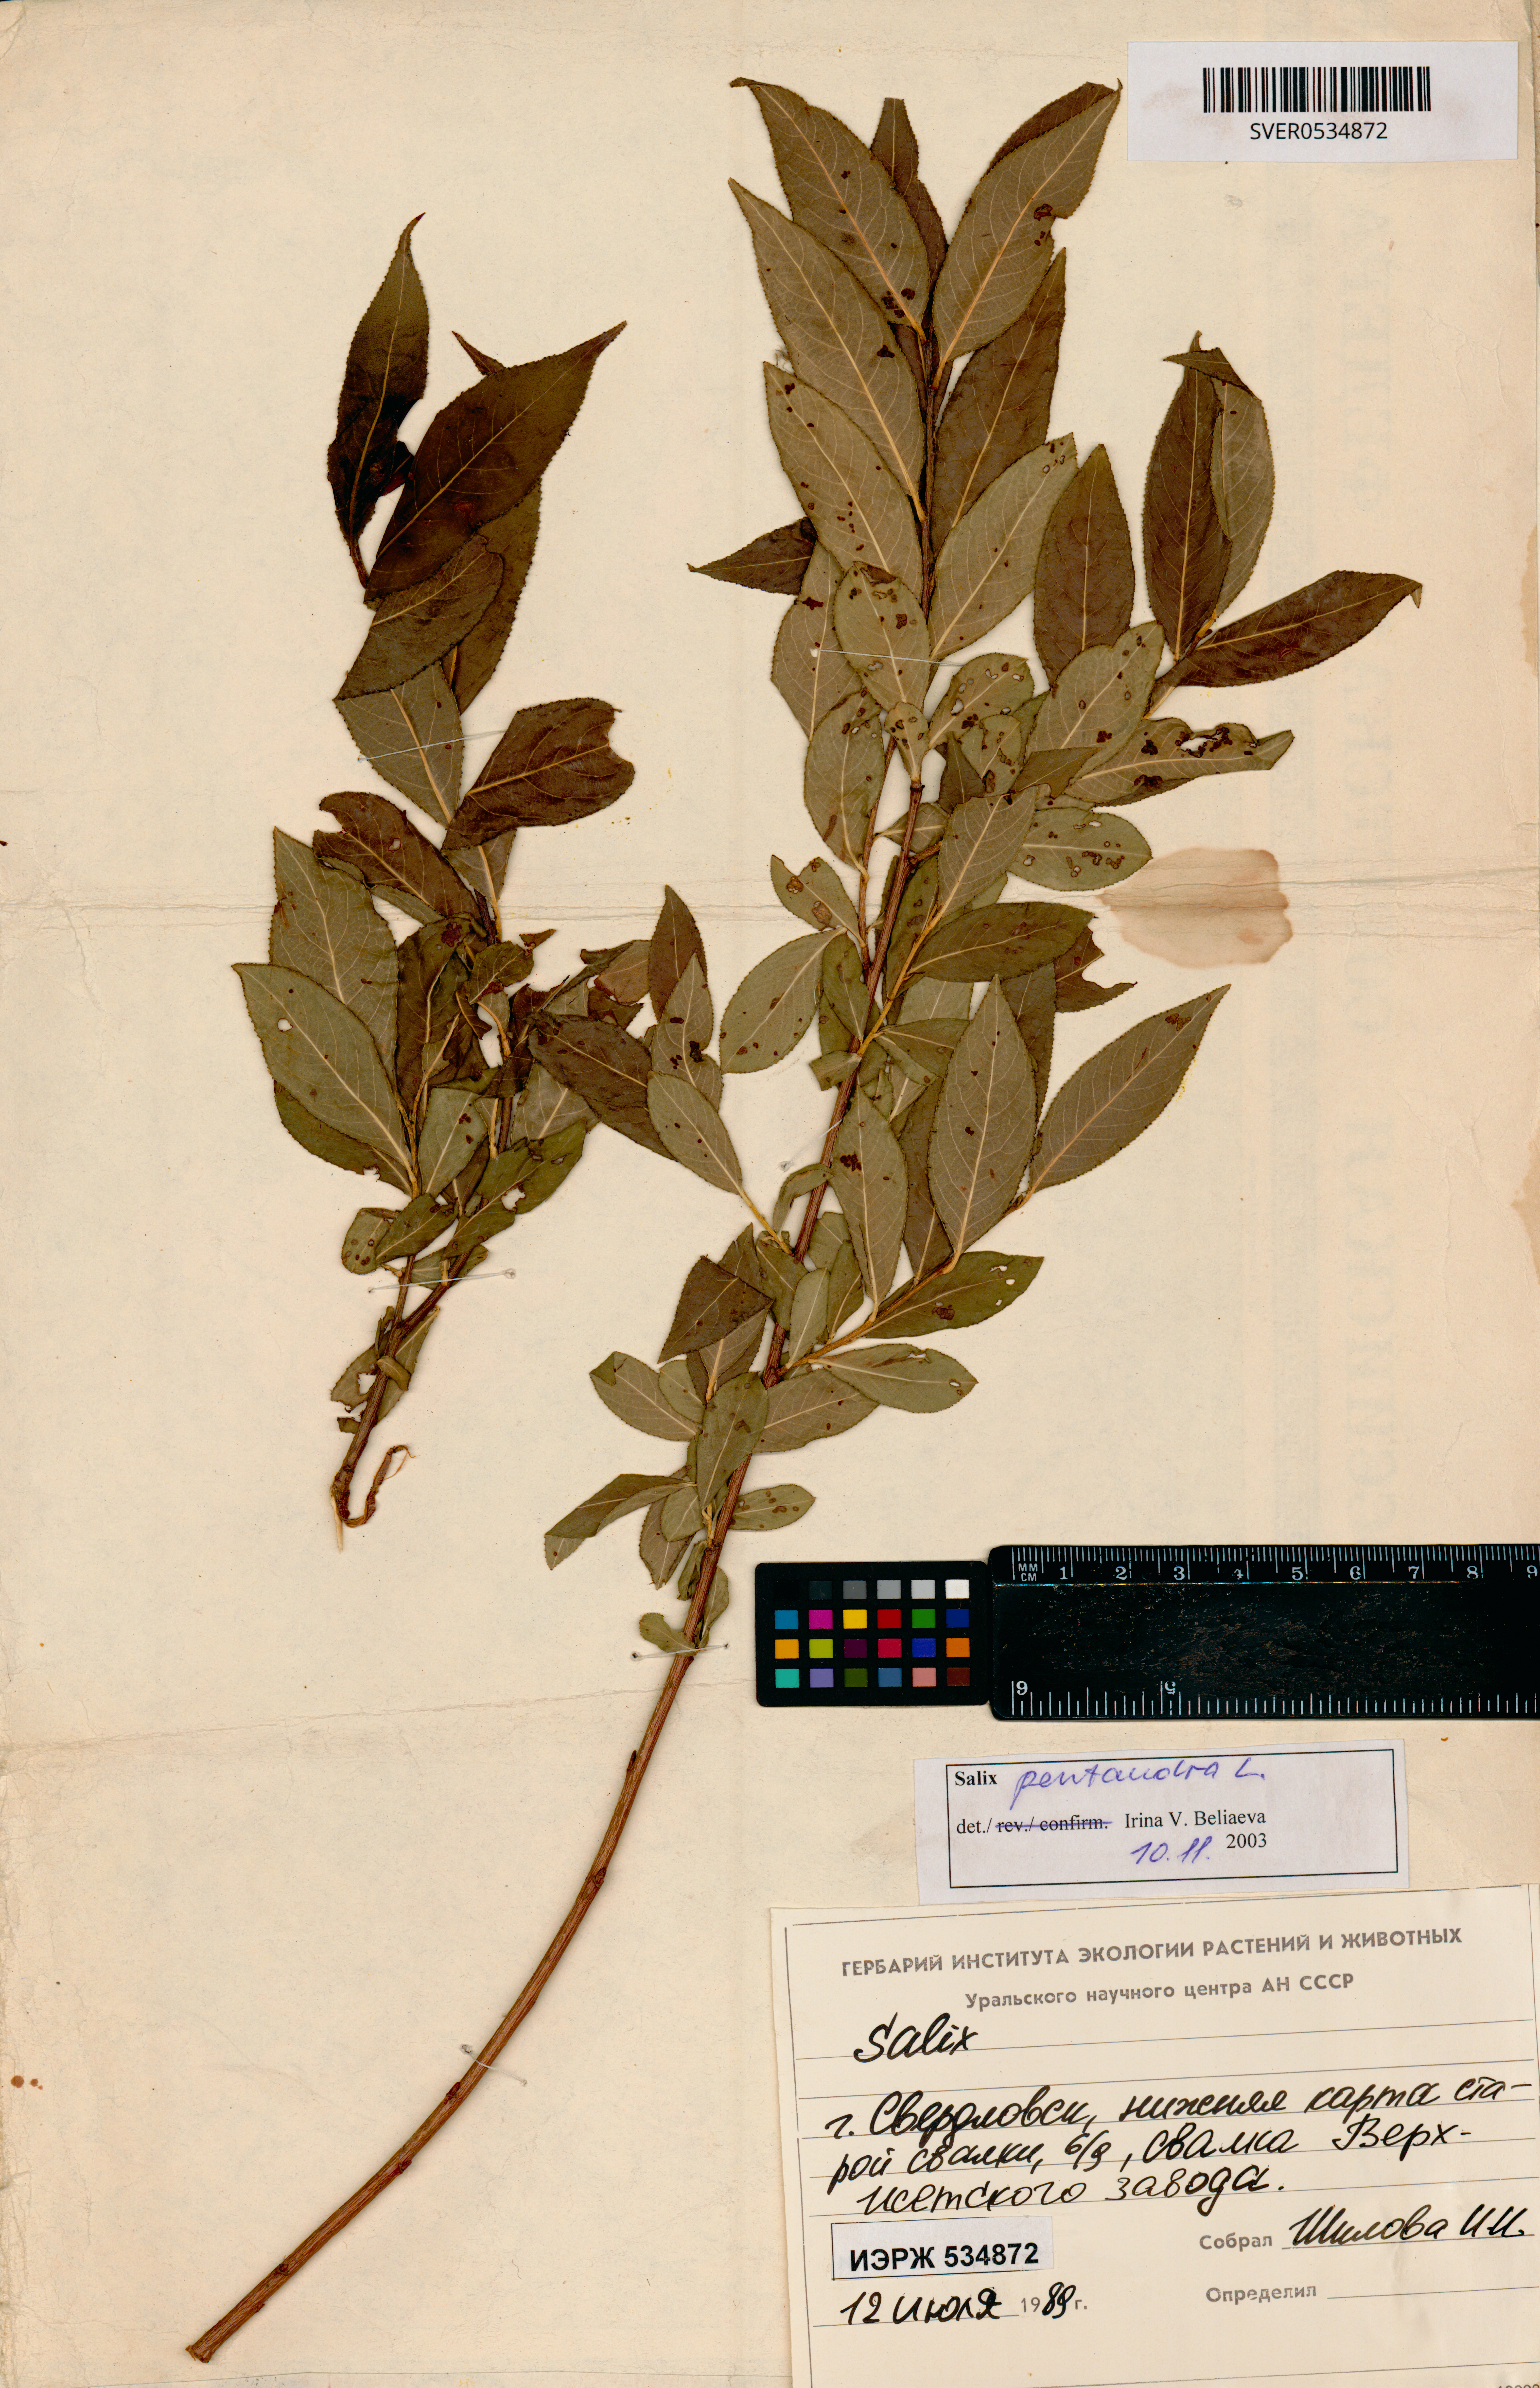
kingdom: Plantae
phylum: Tracheophyta
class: Magnoliopsida
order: Malpighiales
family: Salicaceae
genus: Salix
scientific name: Salix pentandra
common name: Bay willow
